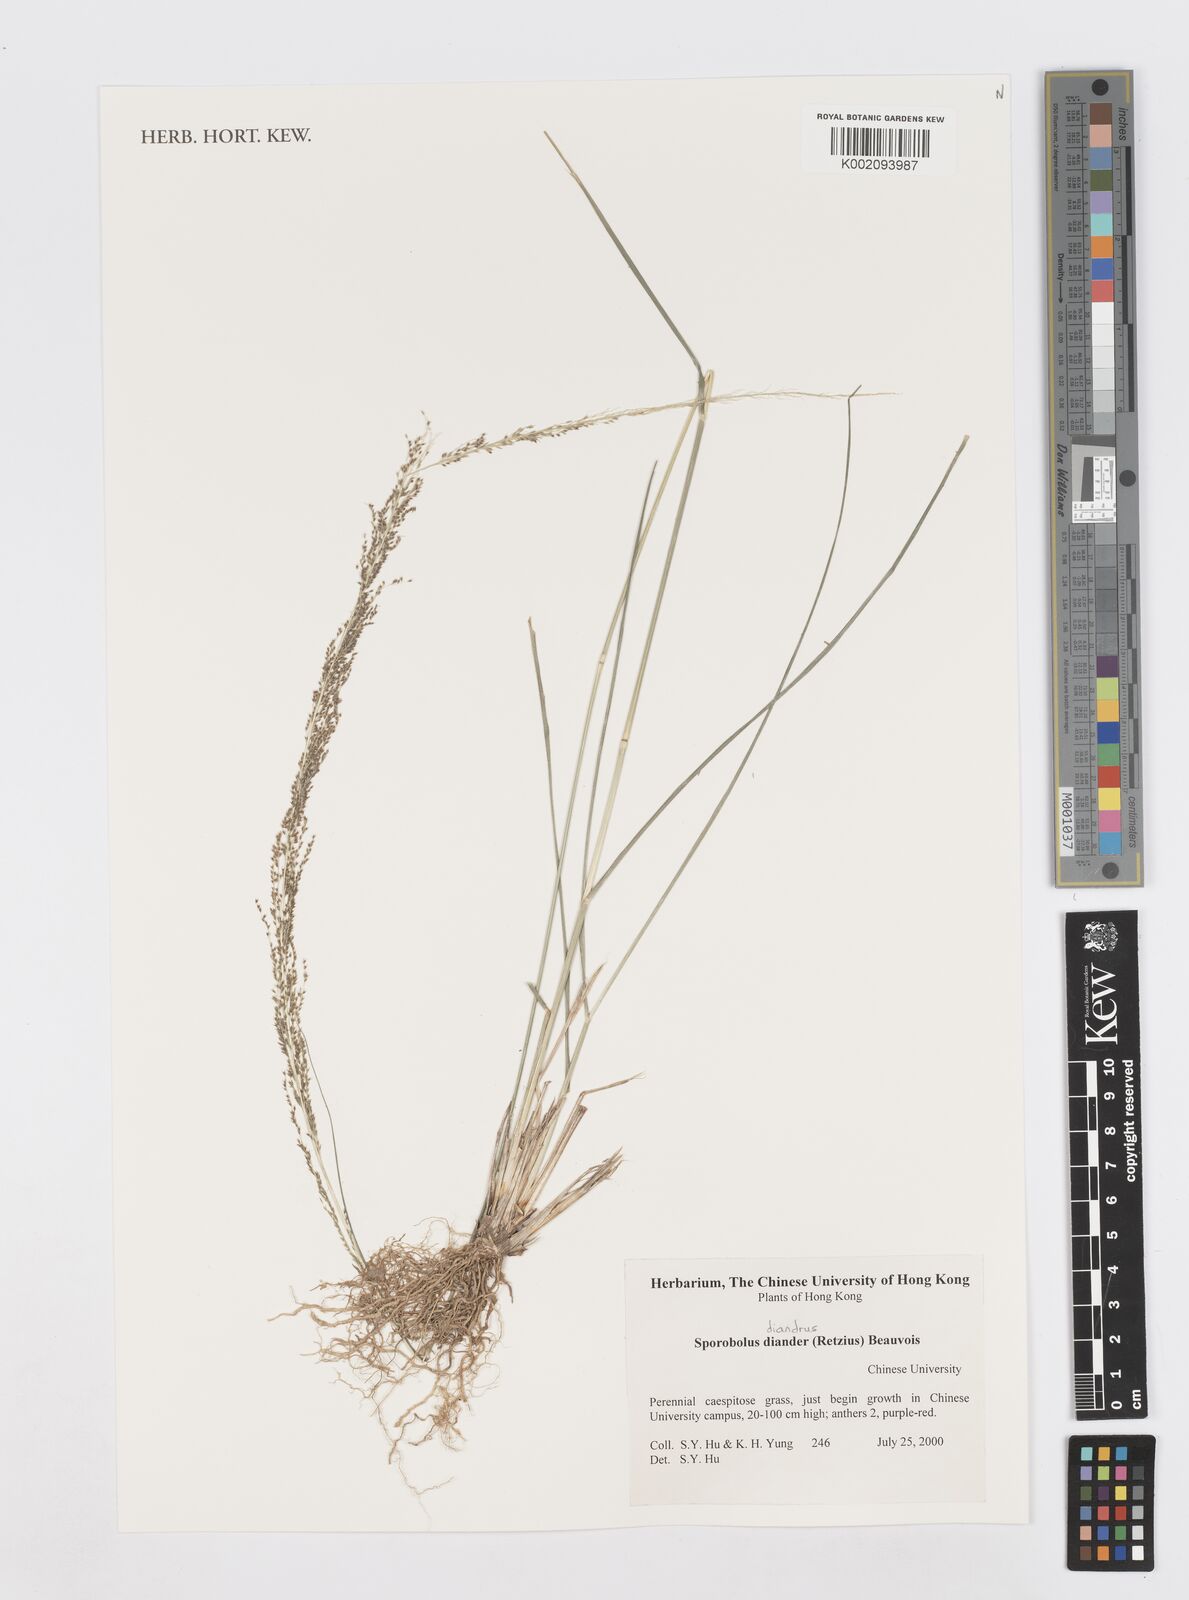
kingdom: Plantae
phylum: Tracheophyta
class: Liliopsida
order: Poales
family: Poaceae
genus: Sporobolus
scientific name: Sporobolus diandrus
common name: Tussock dropseed
